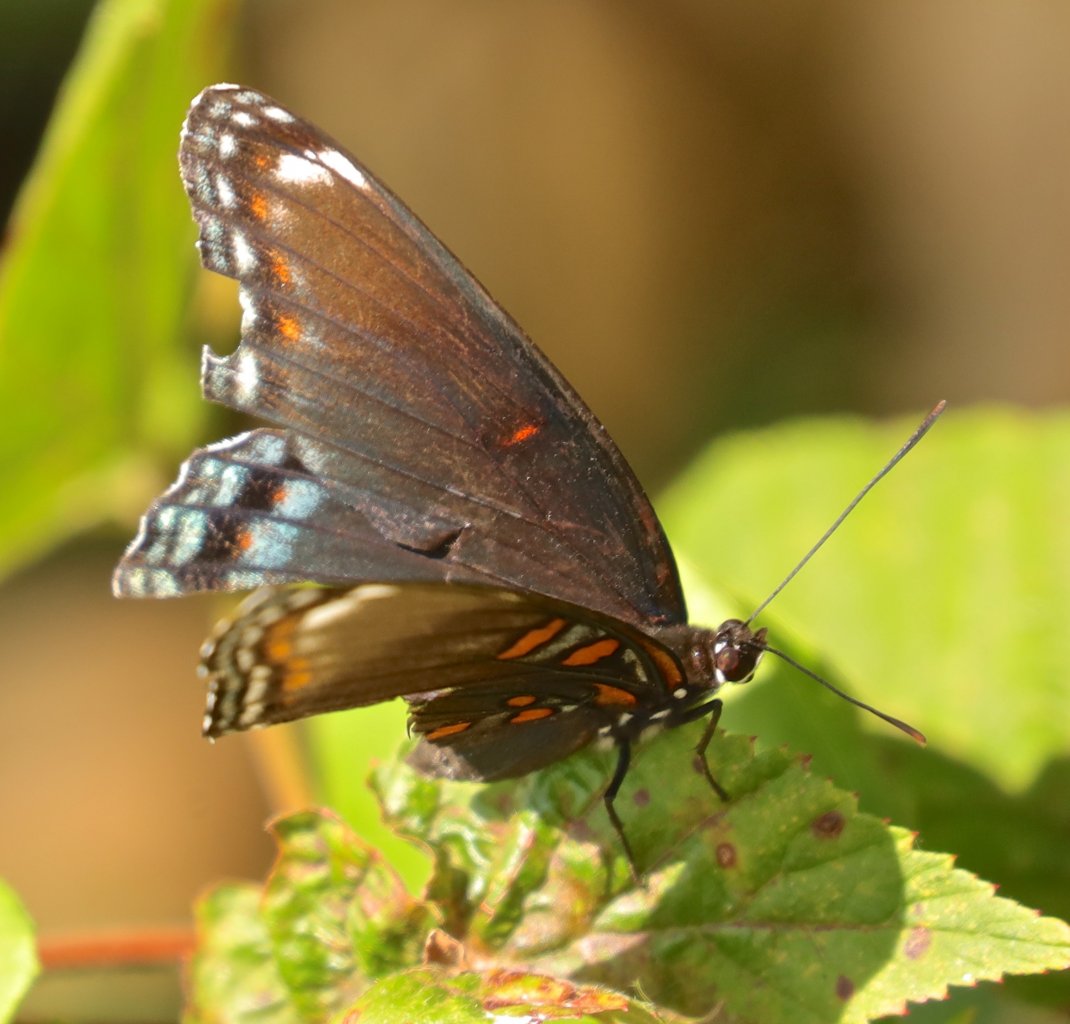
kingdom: Animalia
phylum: Arthropoda
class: Insecta
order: Lepidoptera
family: Nymphalidae
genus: Limenitis
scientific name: Limenitis astyanax
